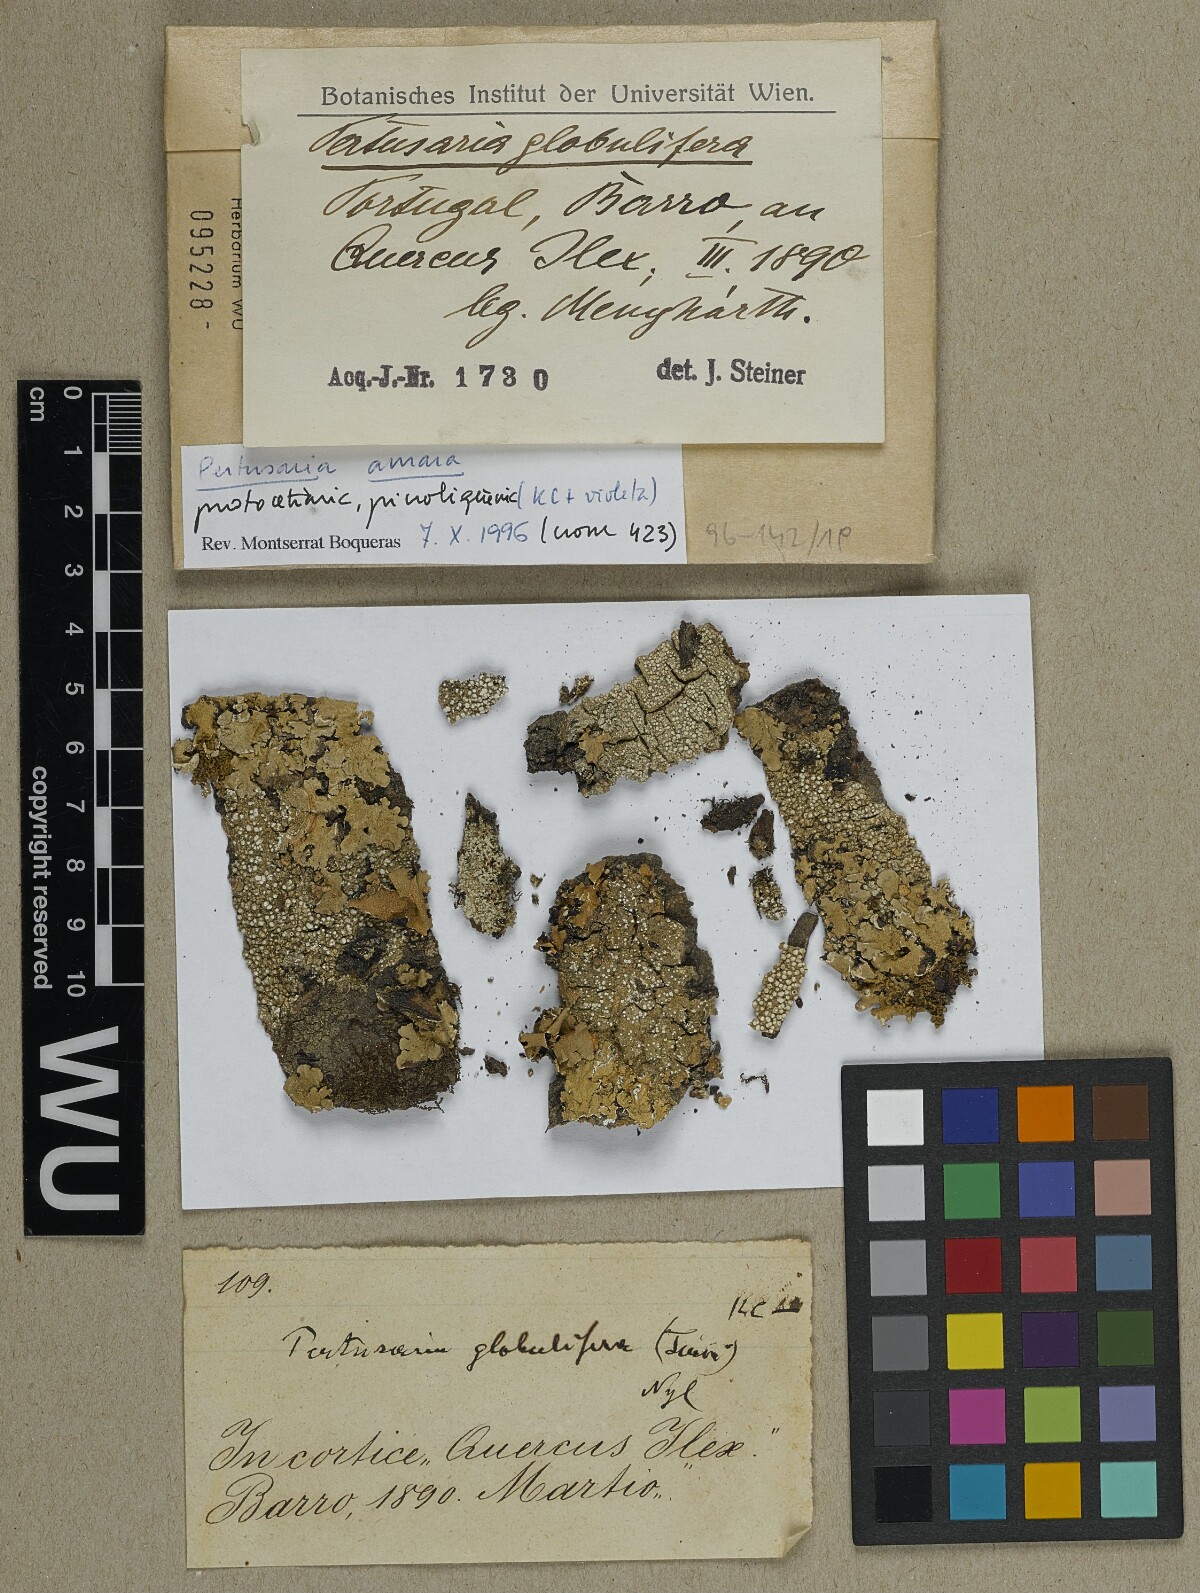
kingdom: Fungi
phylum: Ascomycota
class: Lecanoromycetes
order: Pertusariales
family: Pertusariaceae
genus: Lepra
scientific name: Lepra amara
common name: Bitter wart lichen
